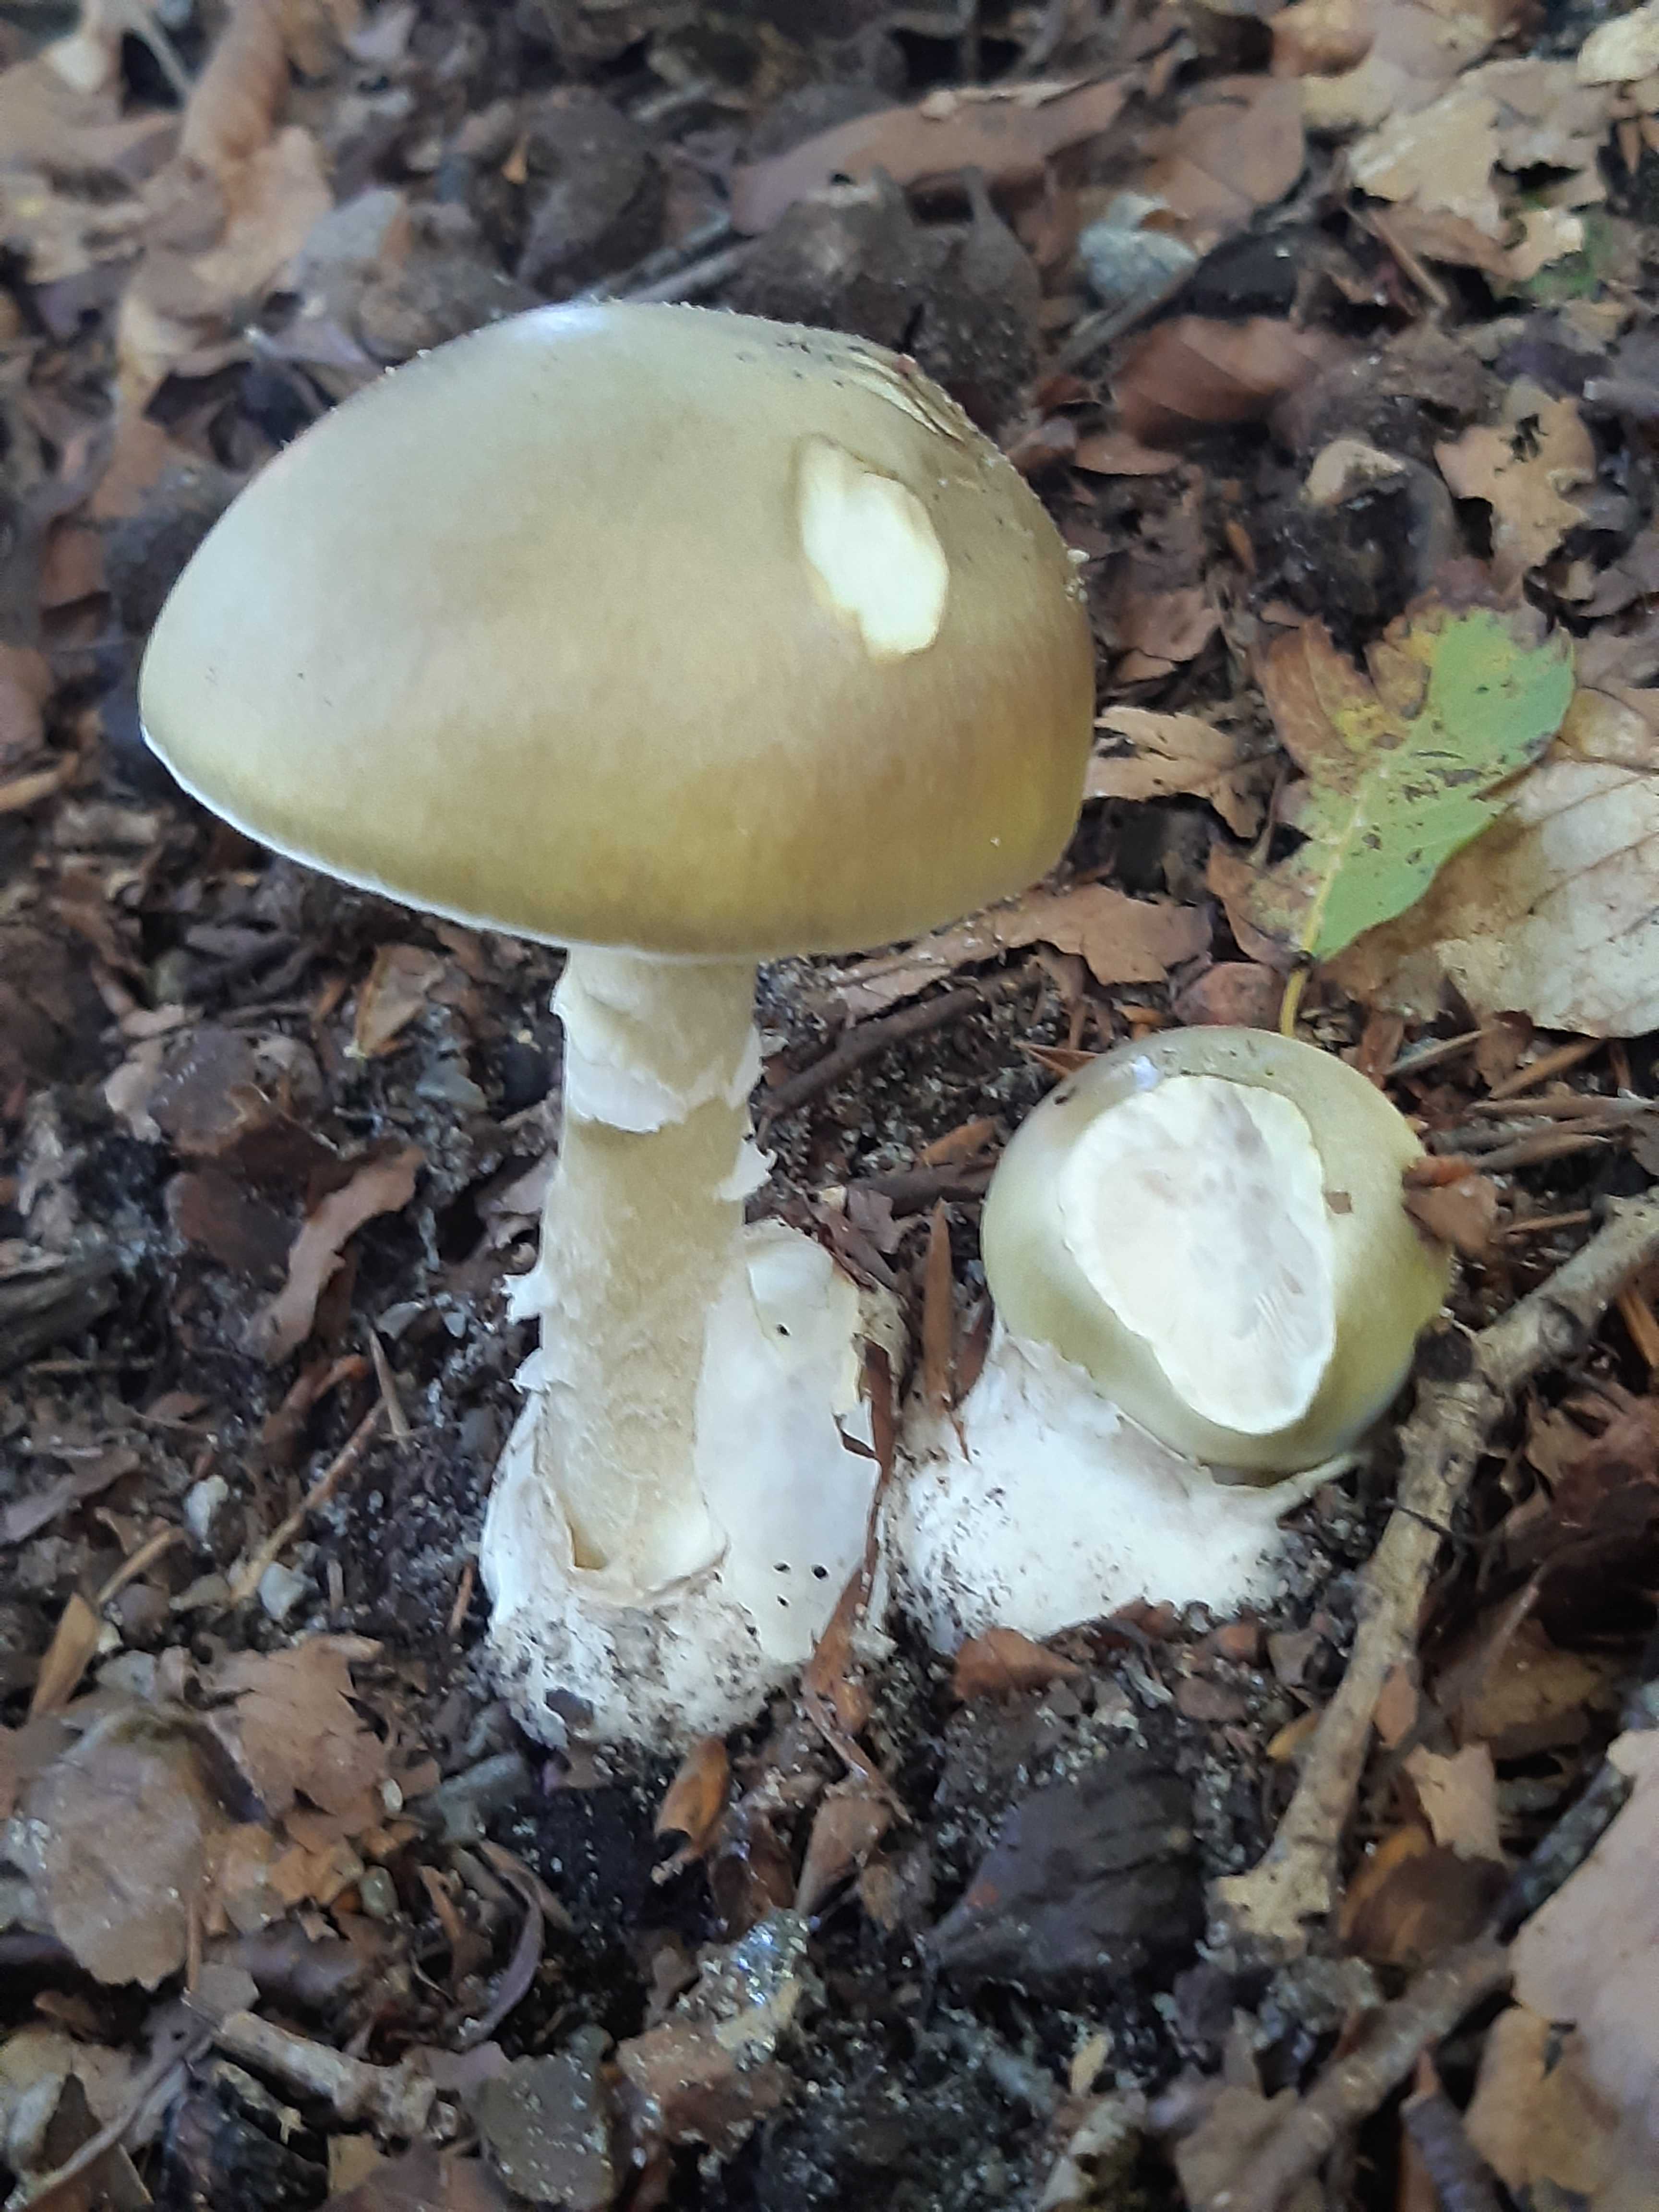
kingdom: Fungi
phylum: Basidiomycota
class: Agaricomycetes
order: Agaricales
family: Amanitaceae
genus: Amanita
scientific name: Amanita phalloides
